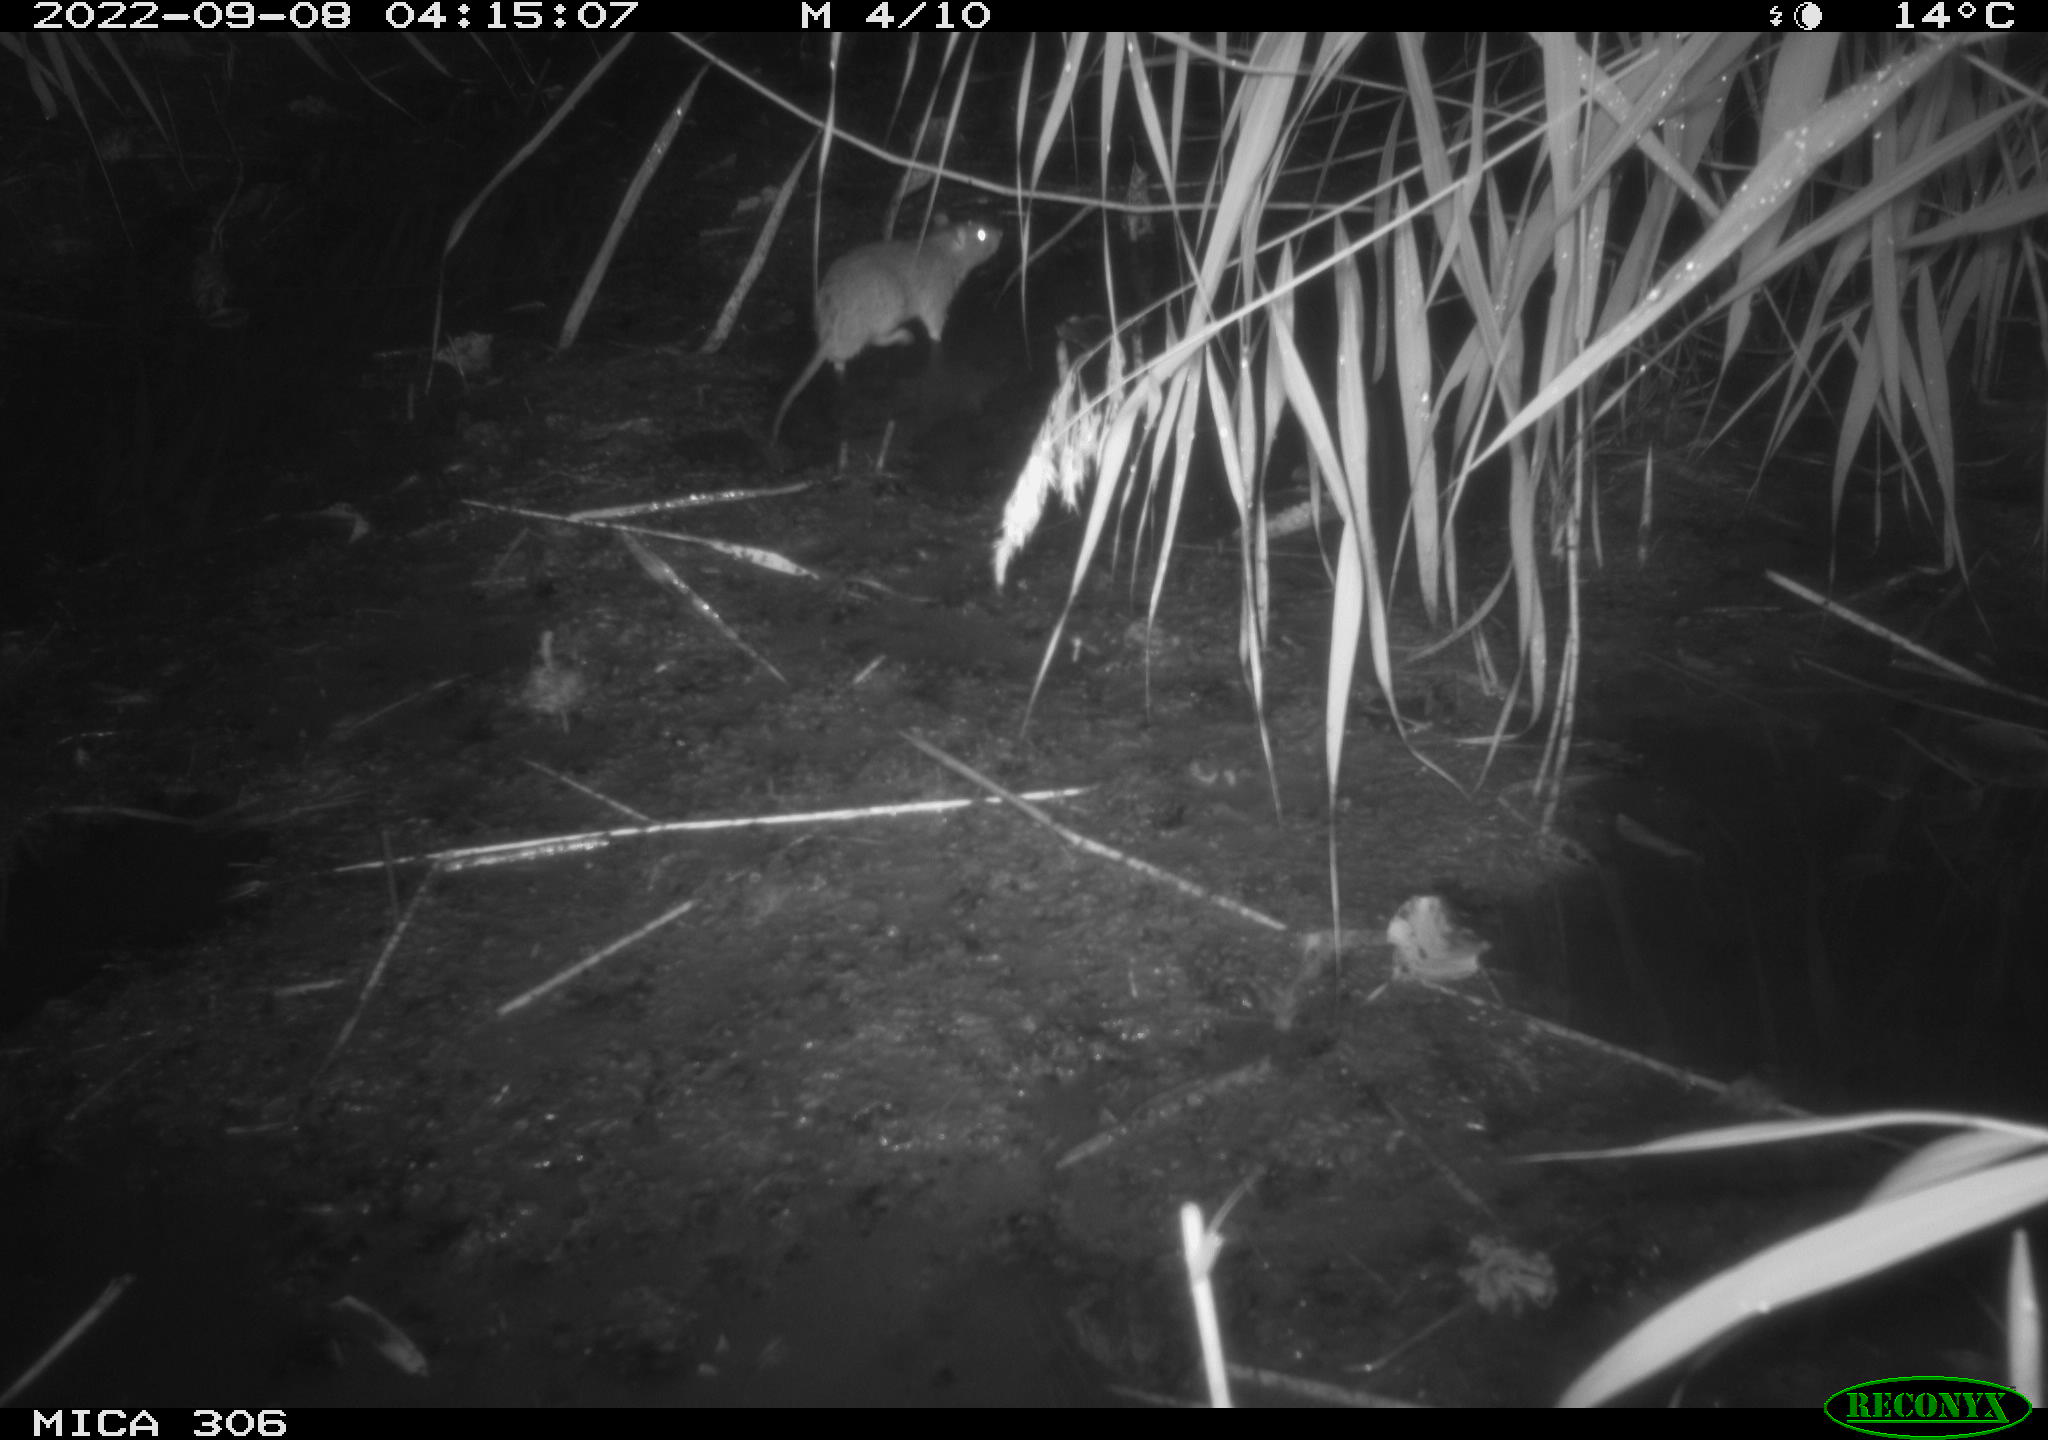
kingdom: Animalia
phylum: Chordata
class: Mammalia
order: Rodentia
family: Muridae
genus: Rattus
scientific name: Rattus norvegicus
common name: Brown rat
